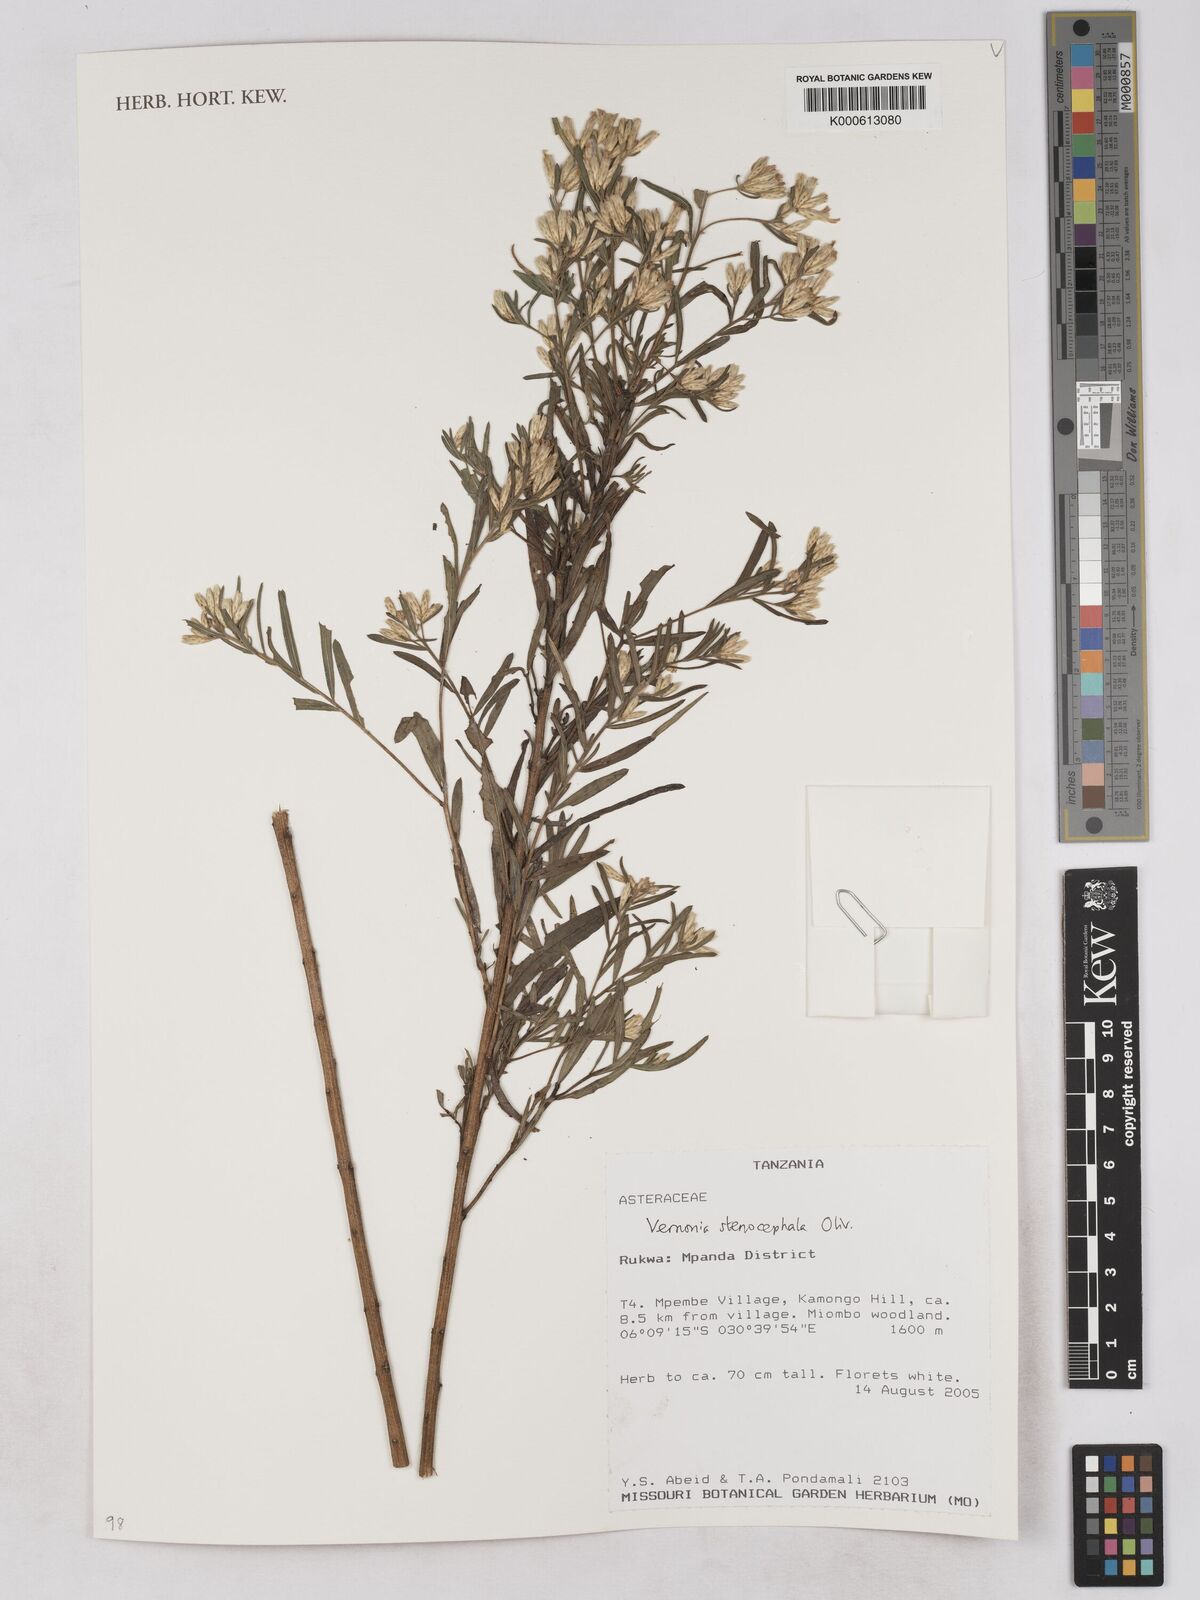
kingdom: Plantae
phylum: Tracheophyta
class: Magnoliopsida
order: Asterales
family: Asteraceae
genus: Oocephala
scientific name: Oocephala stenocephala
